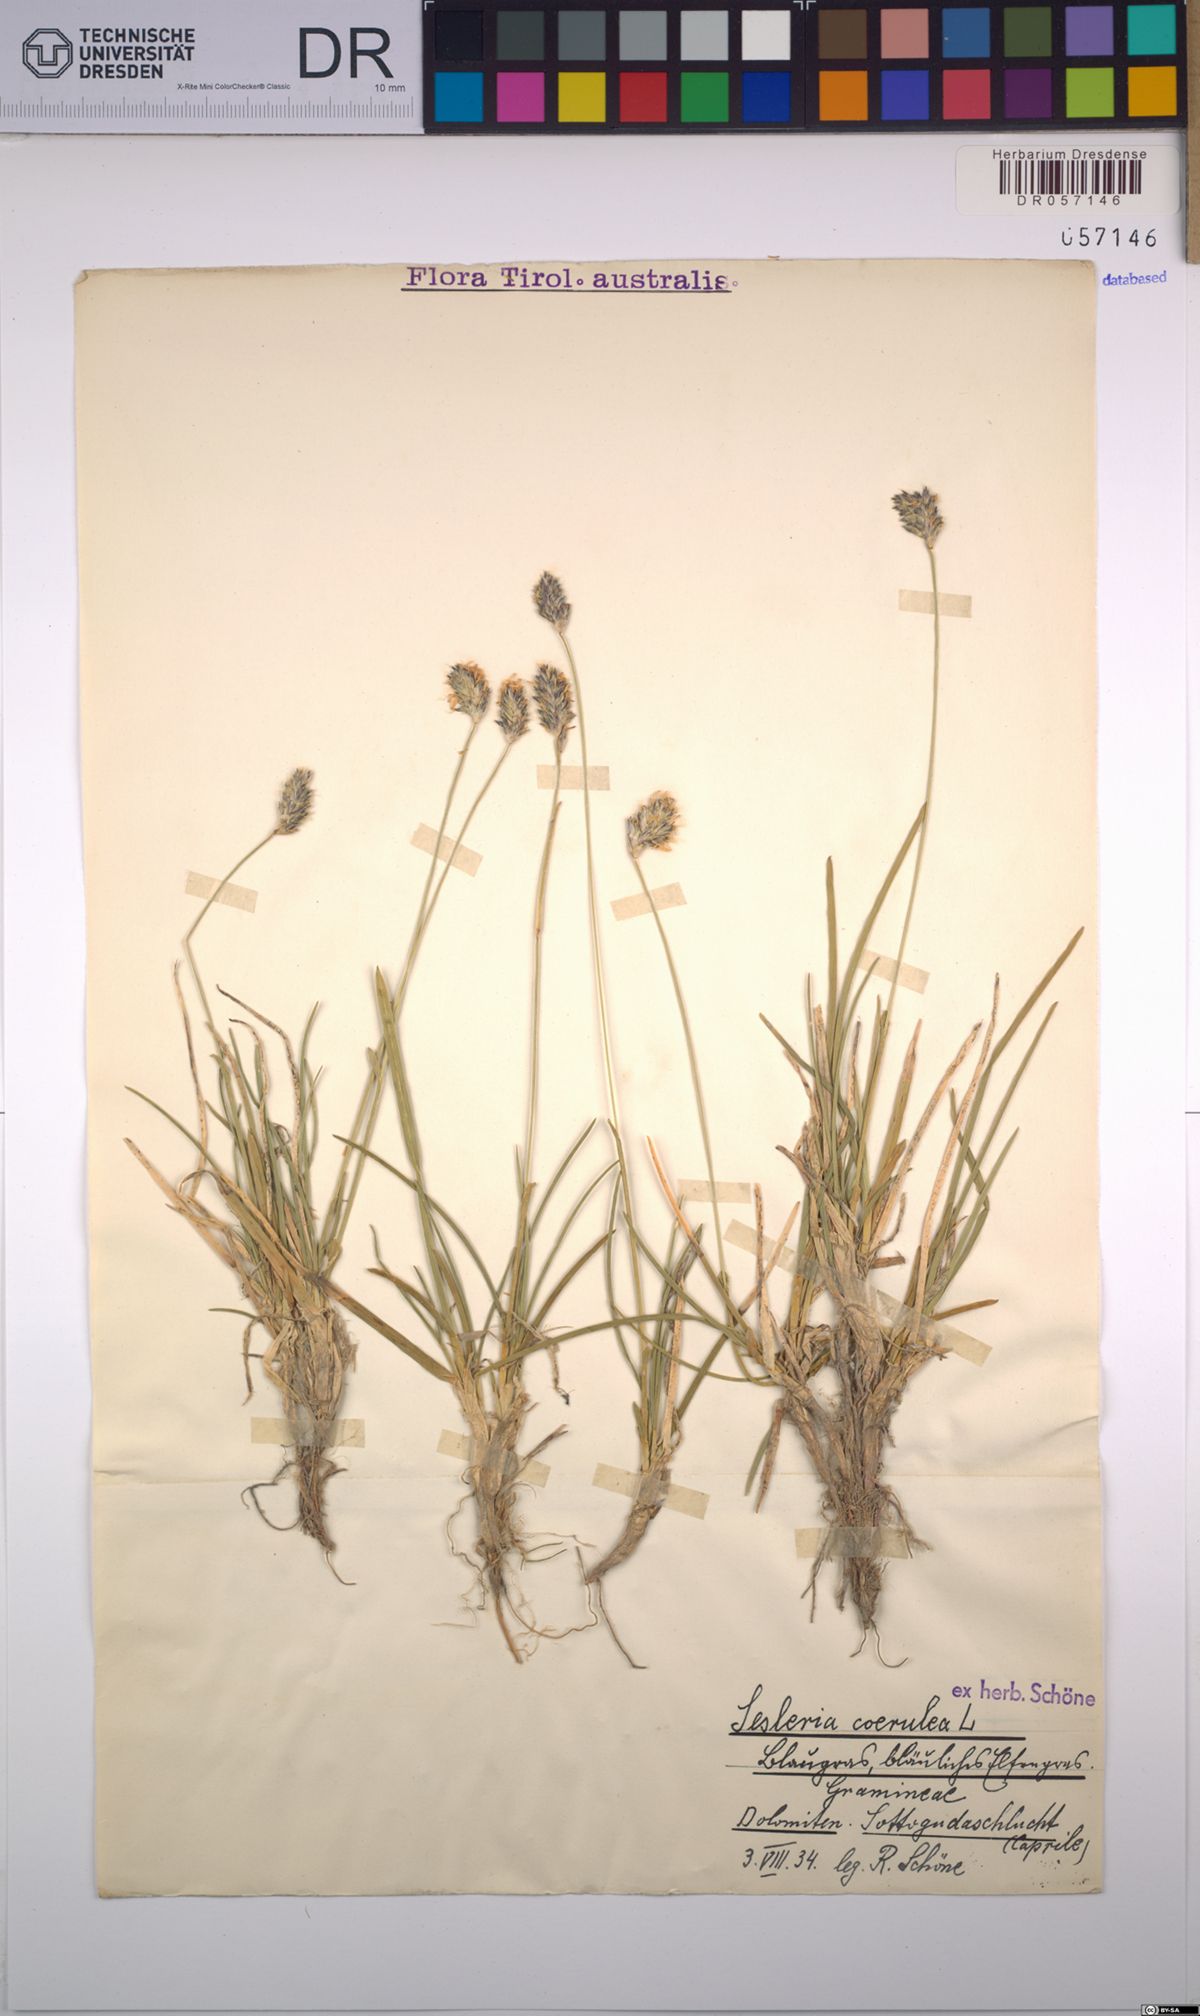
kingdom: Plantae
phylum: Tracheophyta
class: Liliopsida
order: Poales
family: Poaceae
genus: Sesleria
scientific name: Sesleria caerulea
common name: Blue moor-grass
